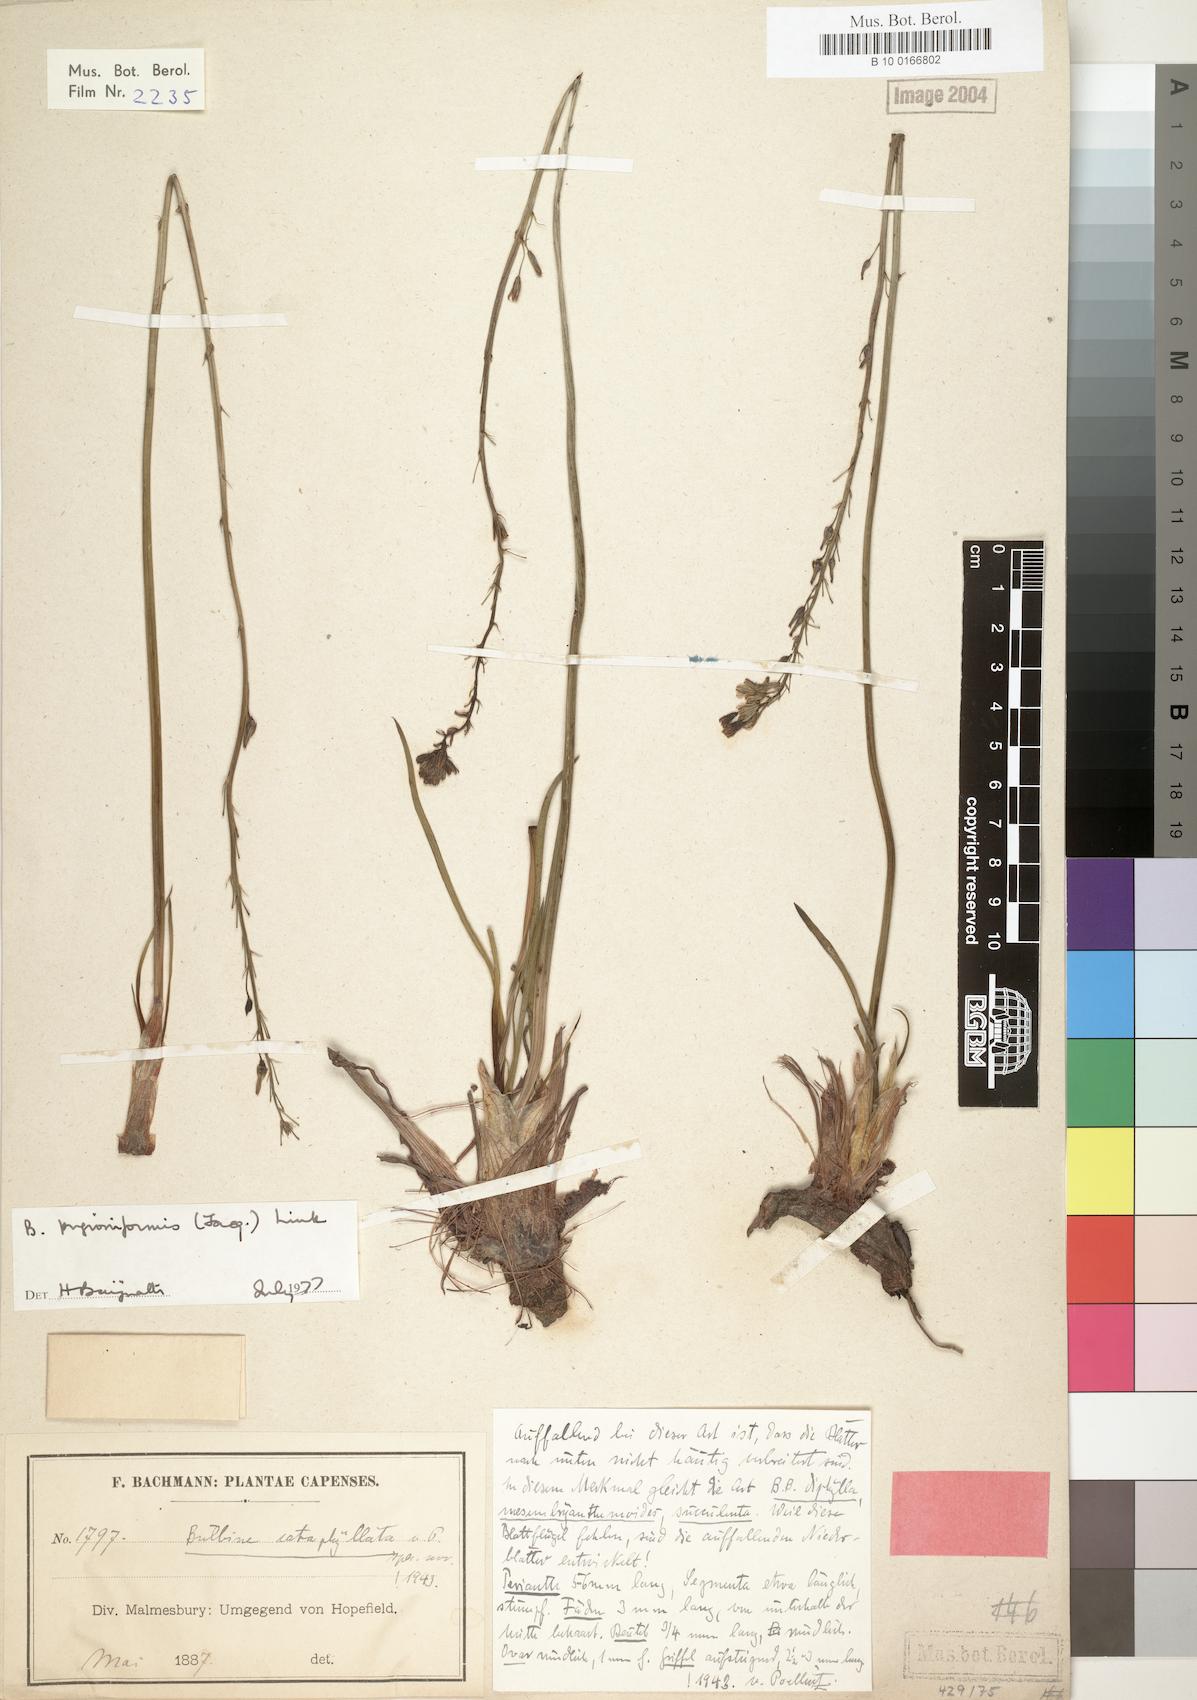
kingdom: Plantae
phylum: Tracheophyta
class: Liliopsida
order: Asparagales
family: Asphodelaceae
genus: Bulbine
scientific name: Bulbine cepacea
